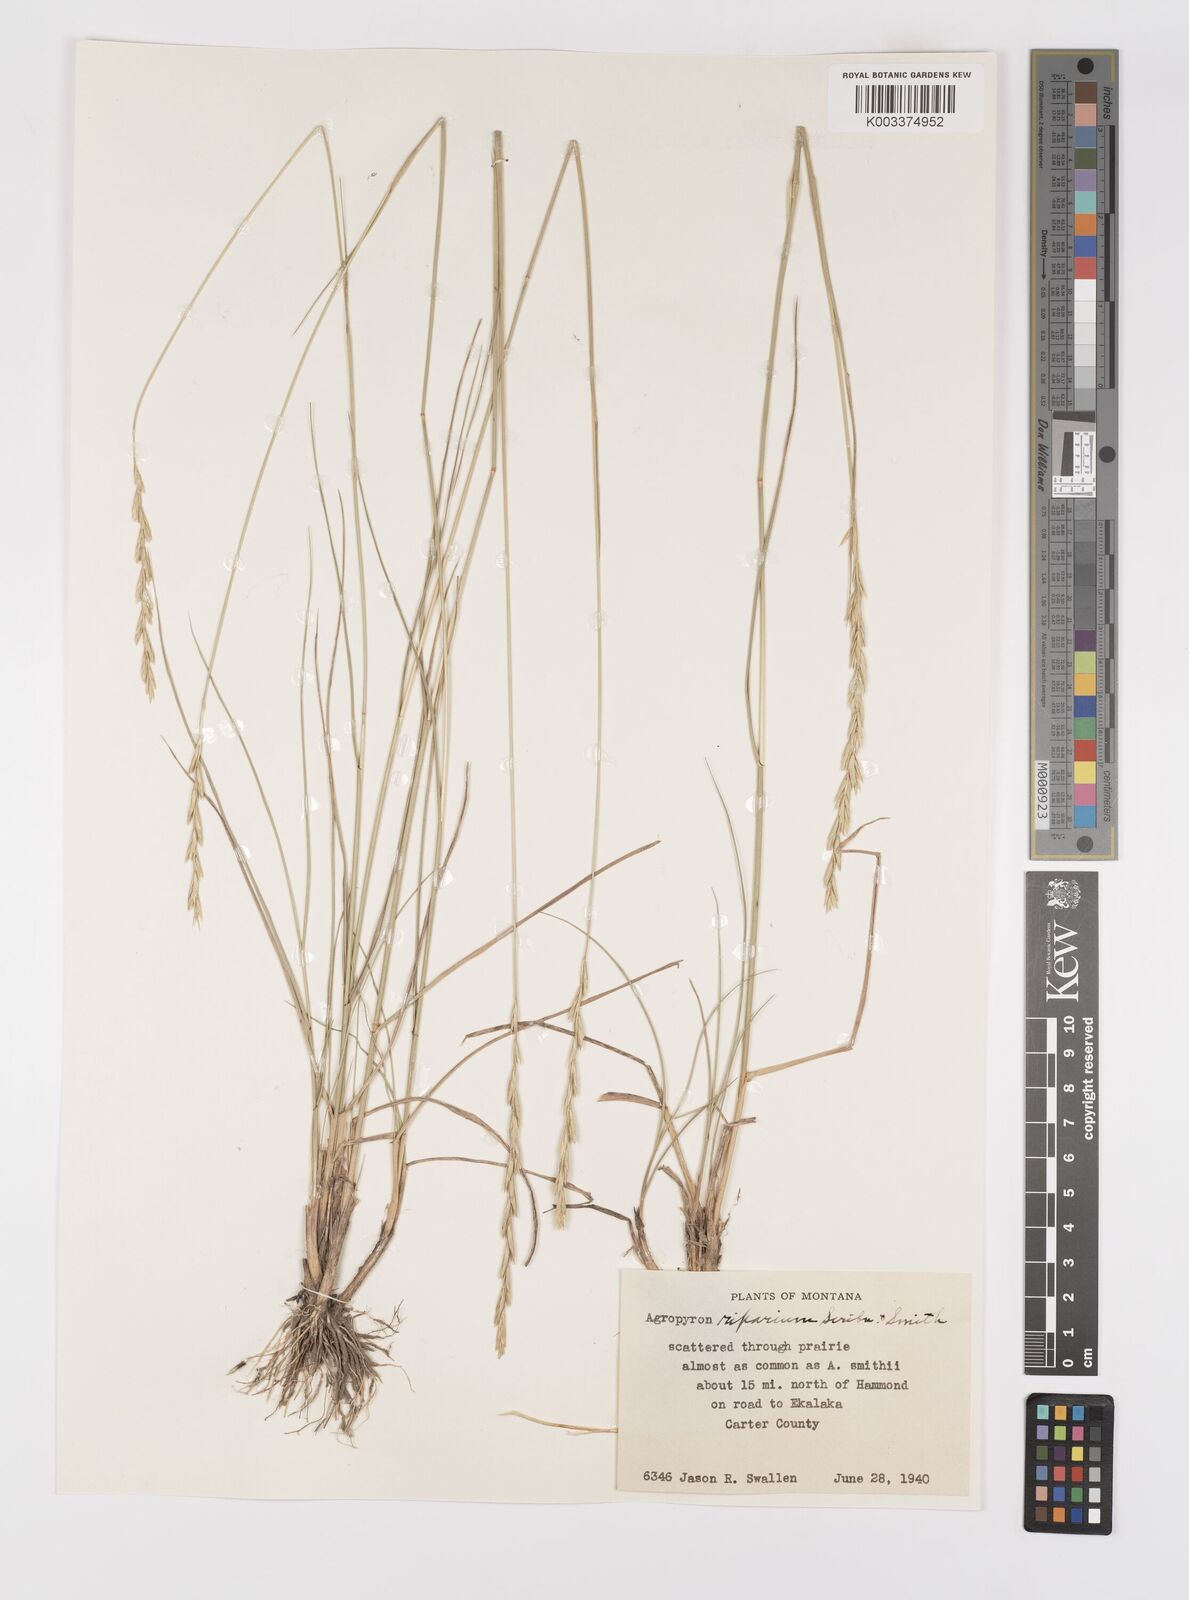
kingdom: Plantae
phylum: Tracheophyta
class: Liliopsida
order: Poales
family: Poaceae
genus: Elymus
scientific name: Elymus lanceolatus
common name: Thick-spike wheatgrass
